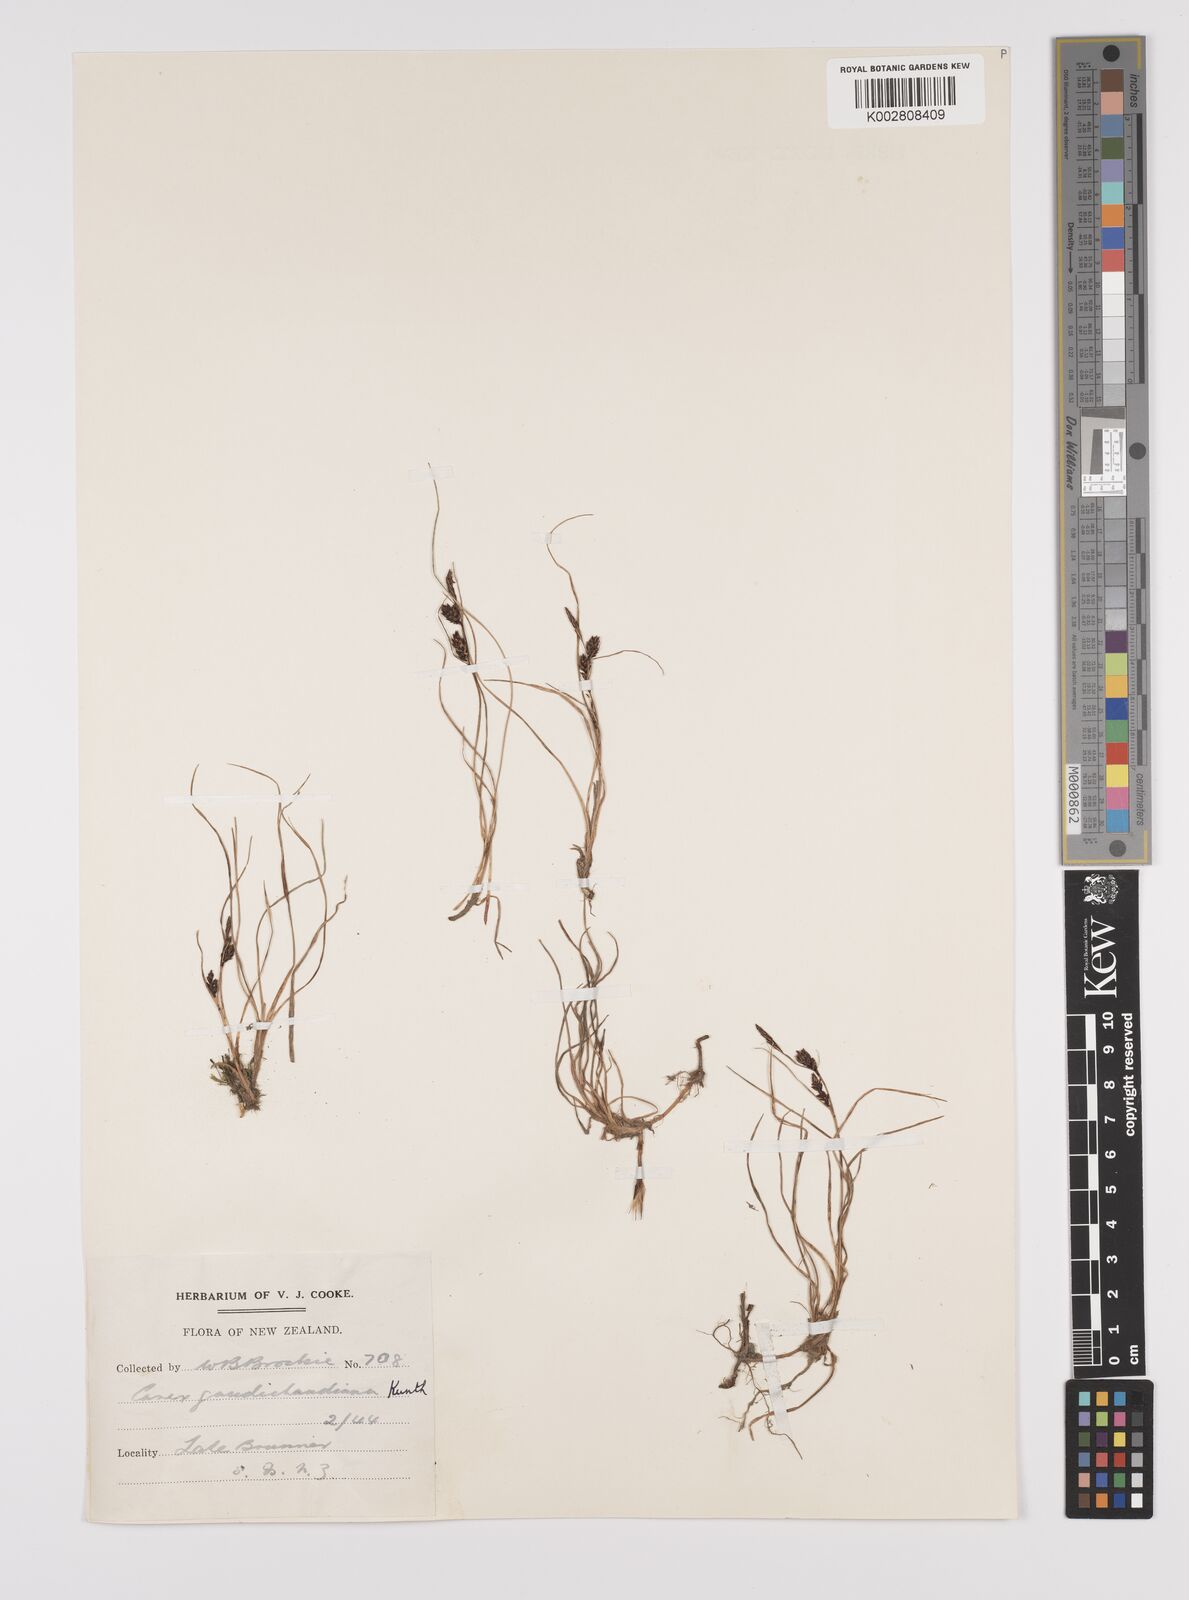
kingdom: Plantae
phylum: Tracheophyta
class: Liliopsida
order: Poales
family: Cyperaceae
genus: Carex
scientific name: Carex gaudichaudiana
